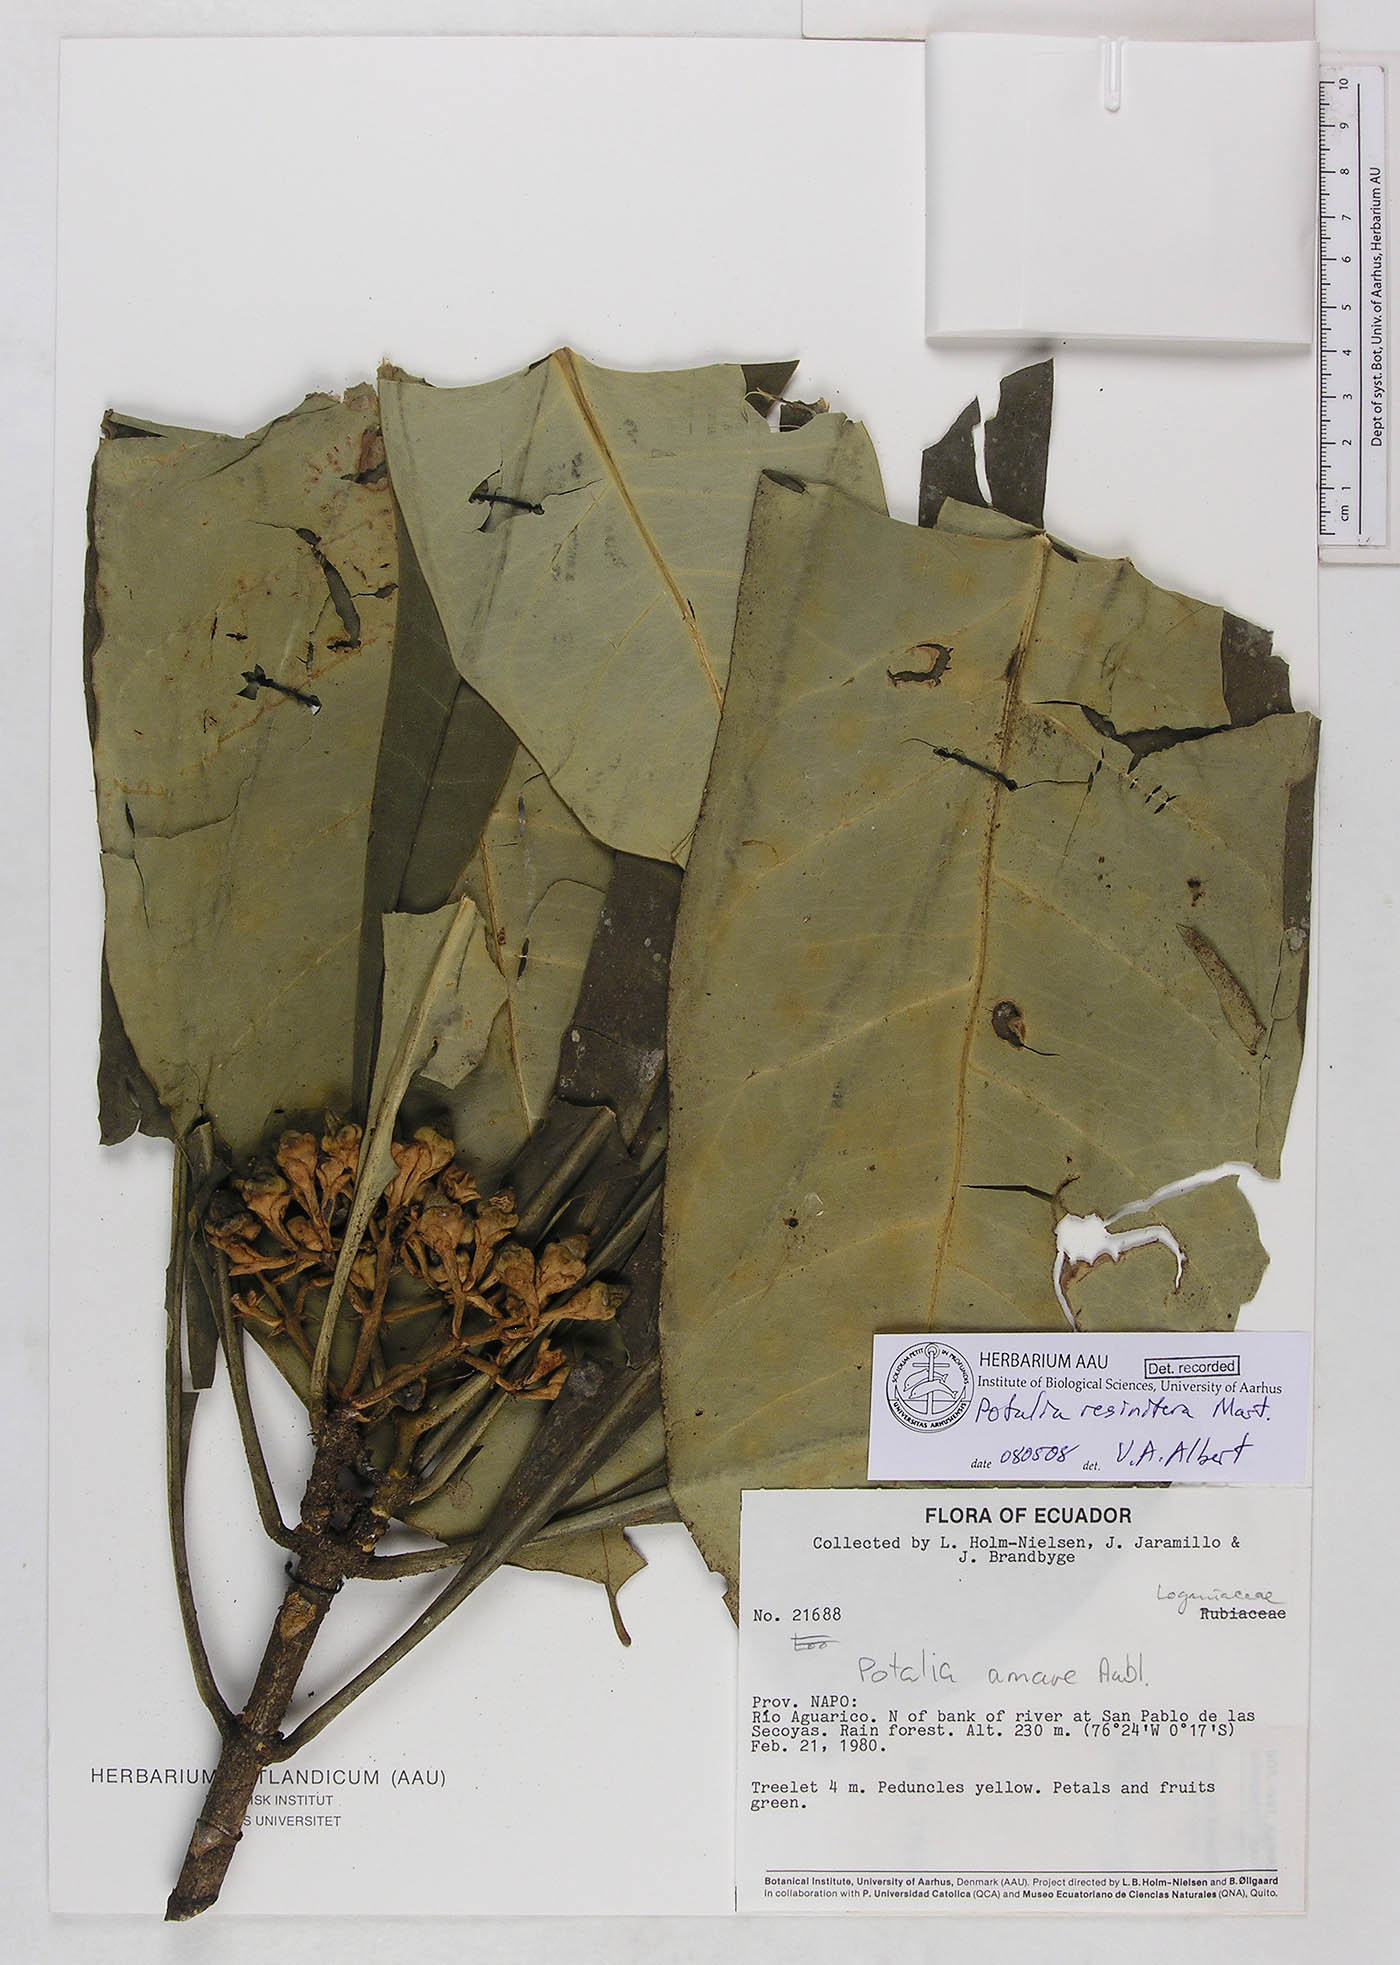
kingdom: Plantae
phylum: Tracheophyta
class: Magnoliopsida
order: Gentianales
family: Gentianaceae
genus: Potalia
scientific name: Potalia resinifera
